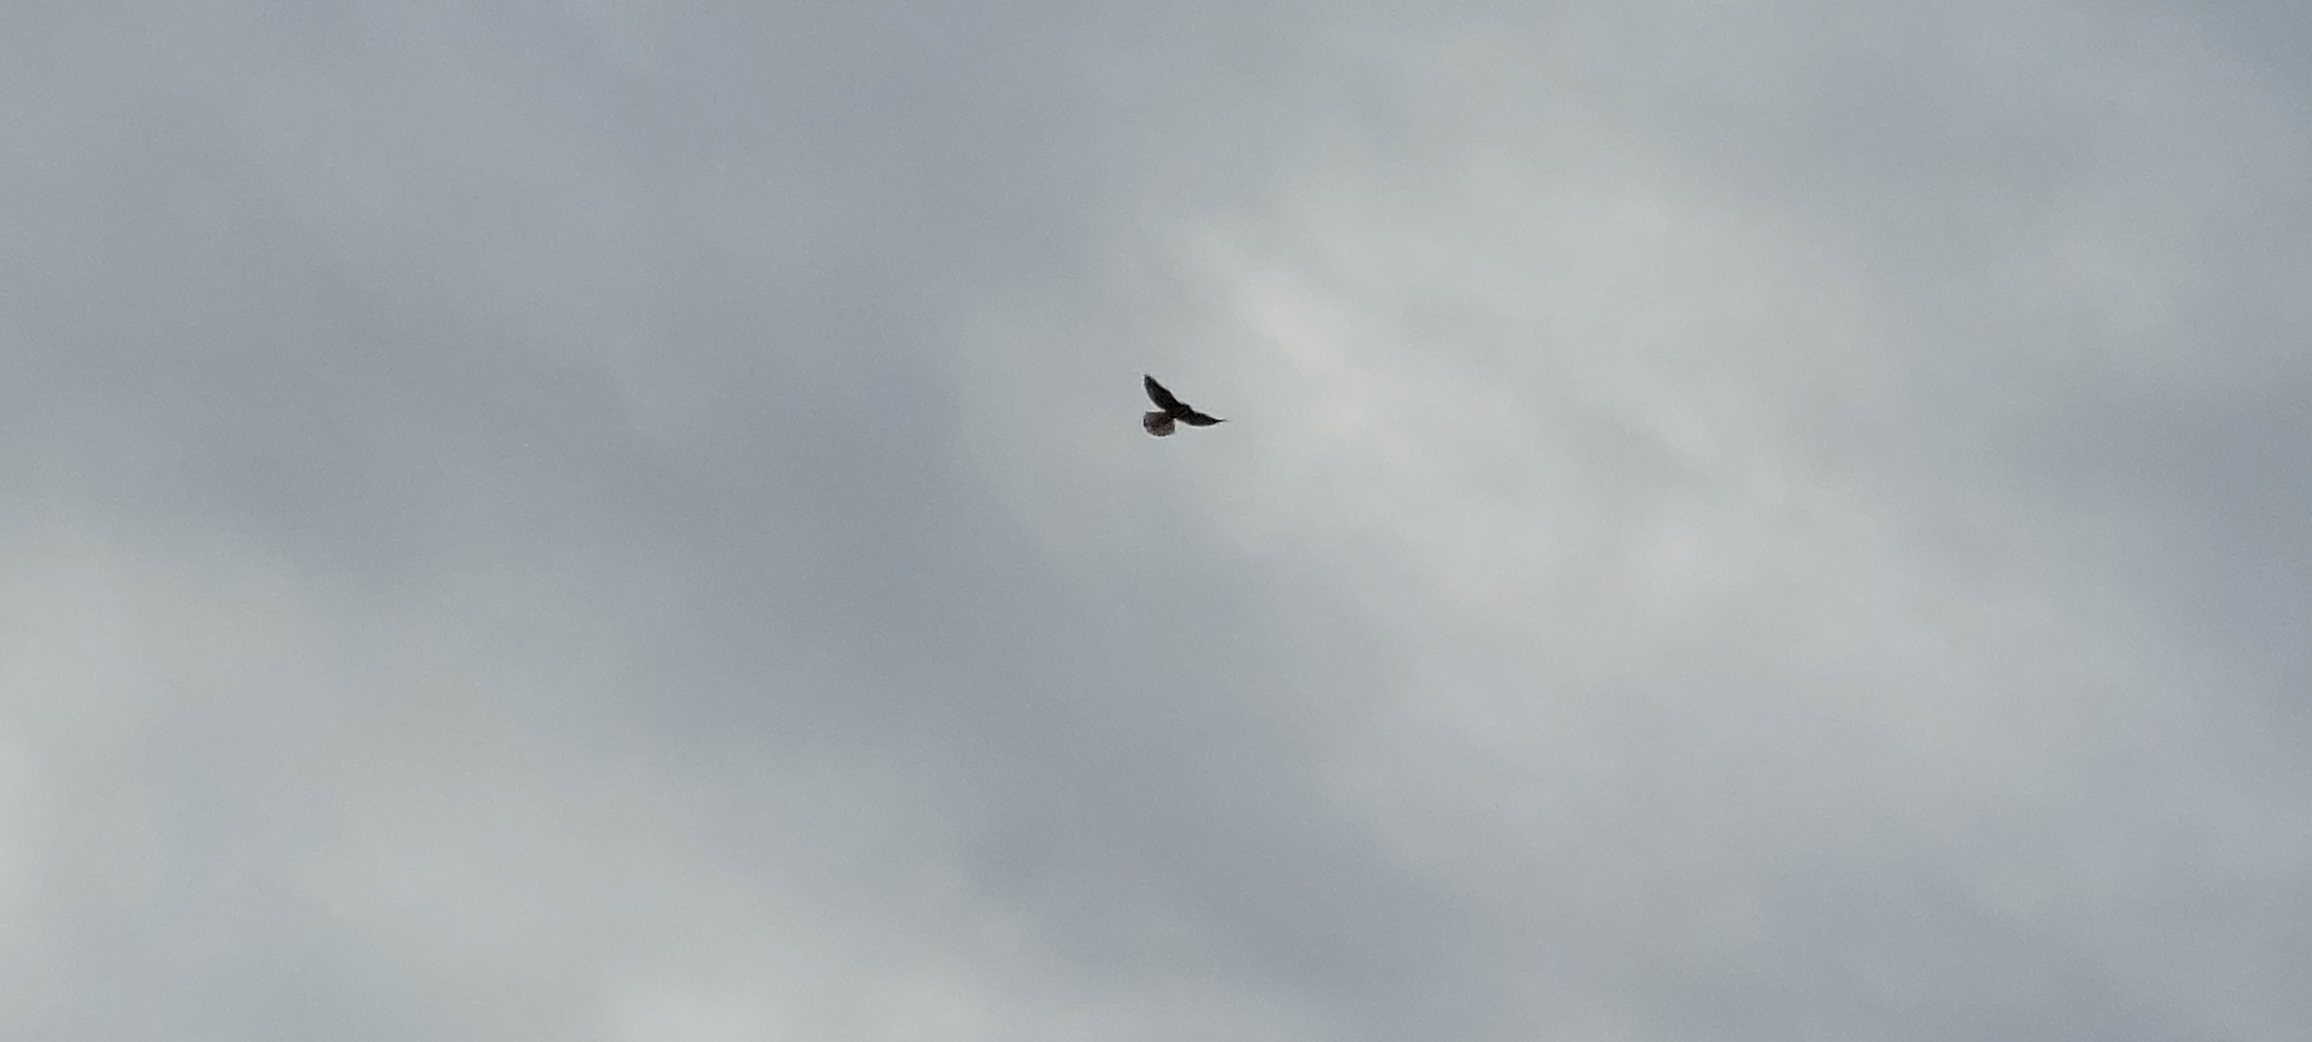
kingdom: Animalia
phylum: Chordata
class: Aves
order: Falconiformes
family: Falconidae
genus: Falco
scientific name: Falco tinnunculus
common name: Tårnfalk
